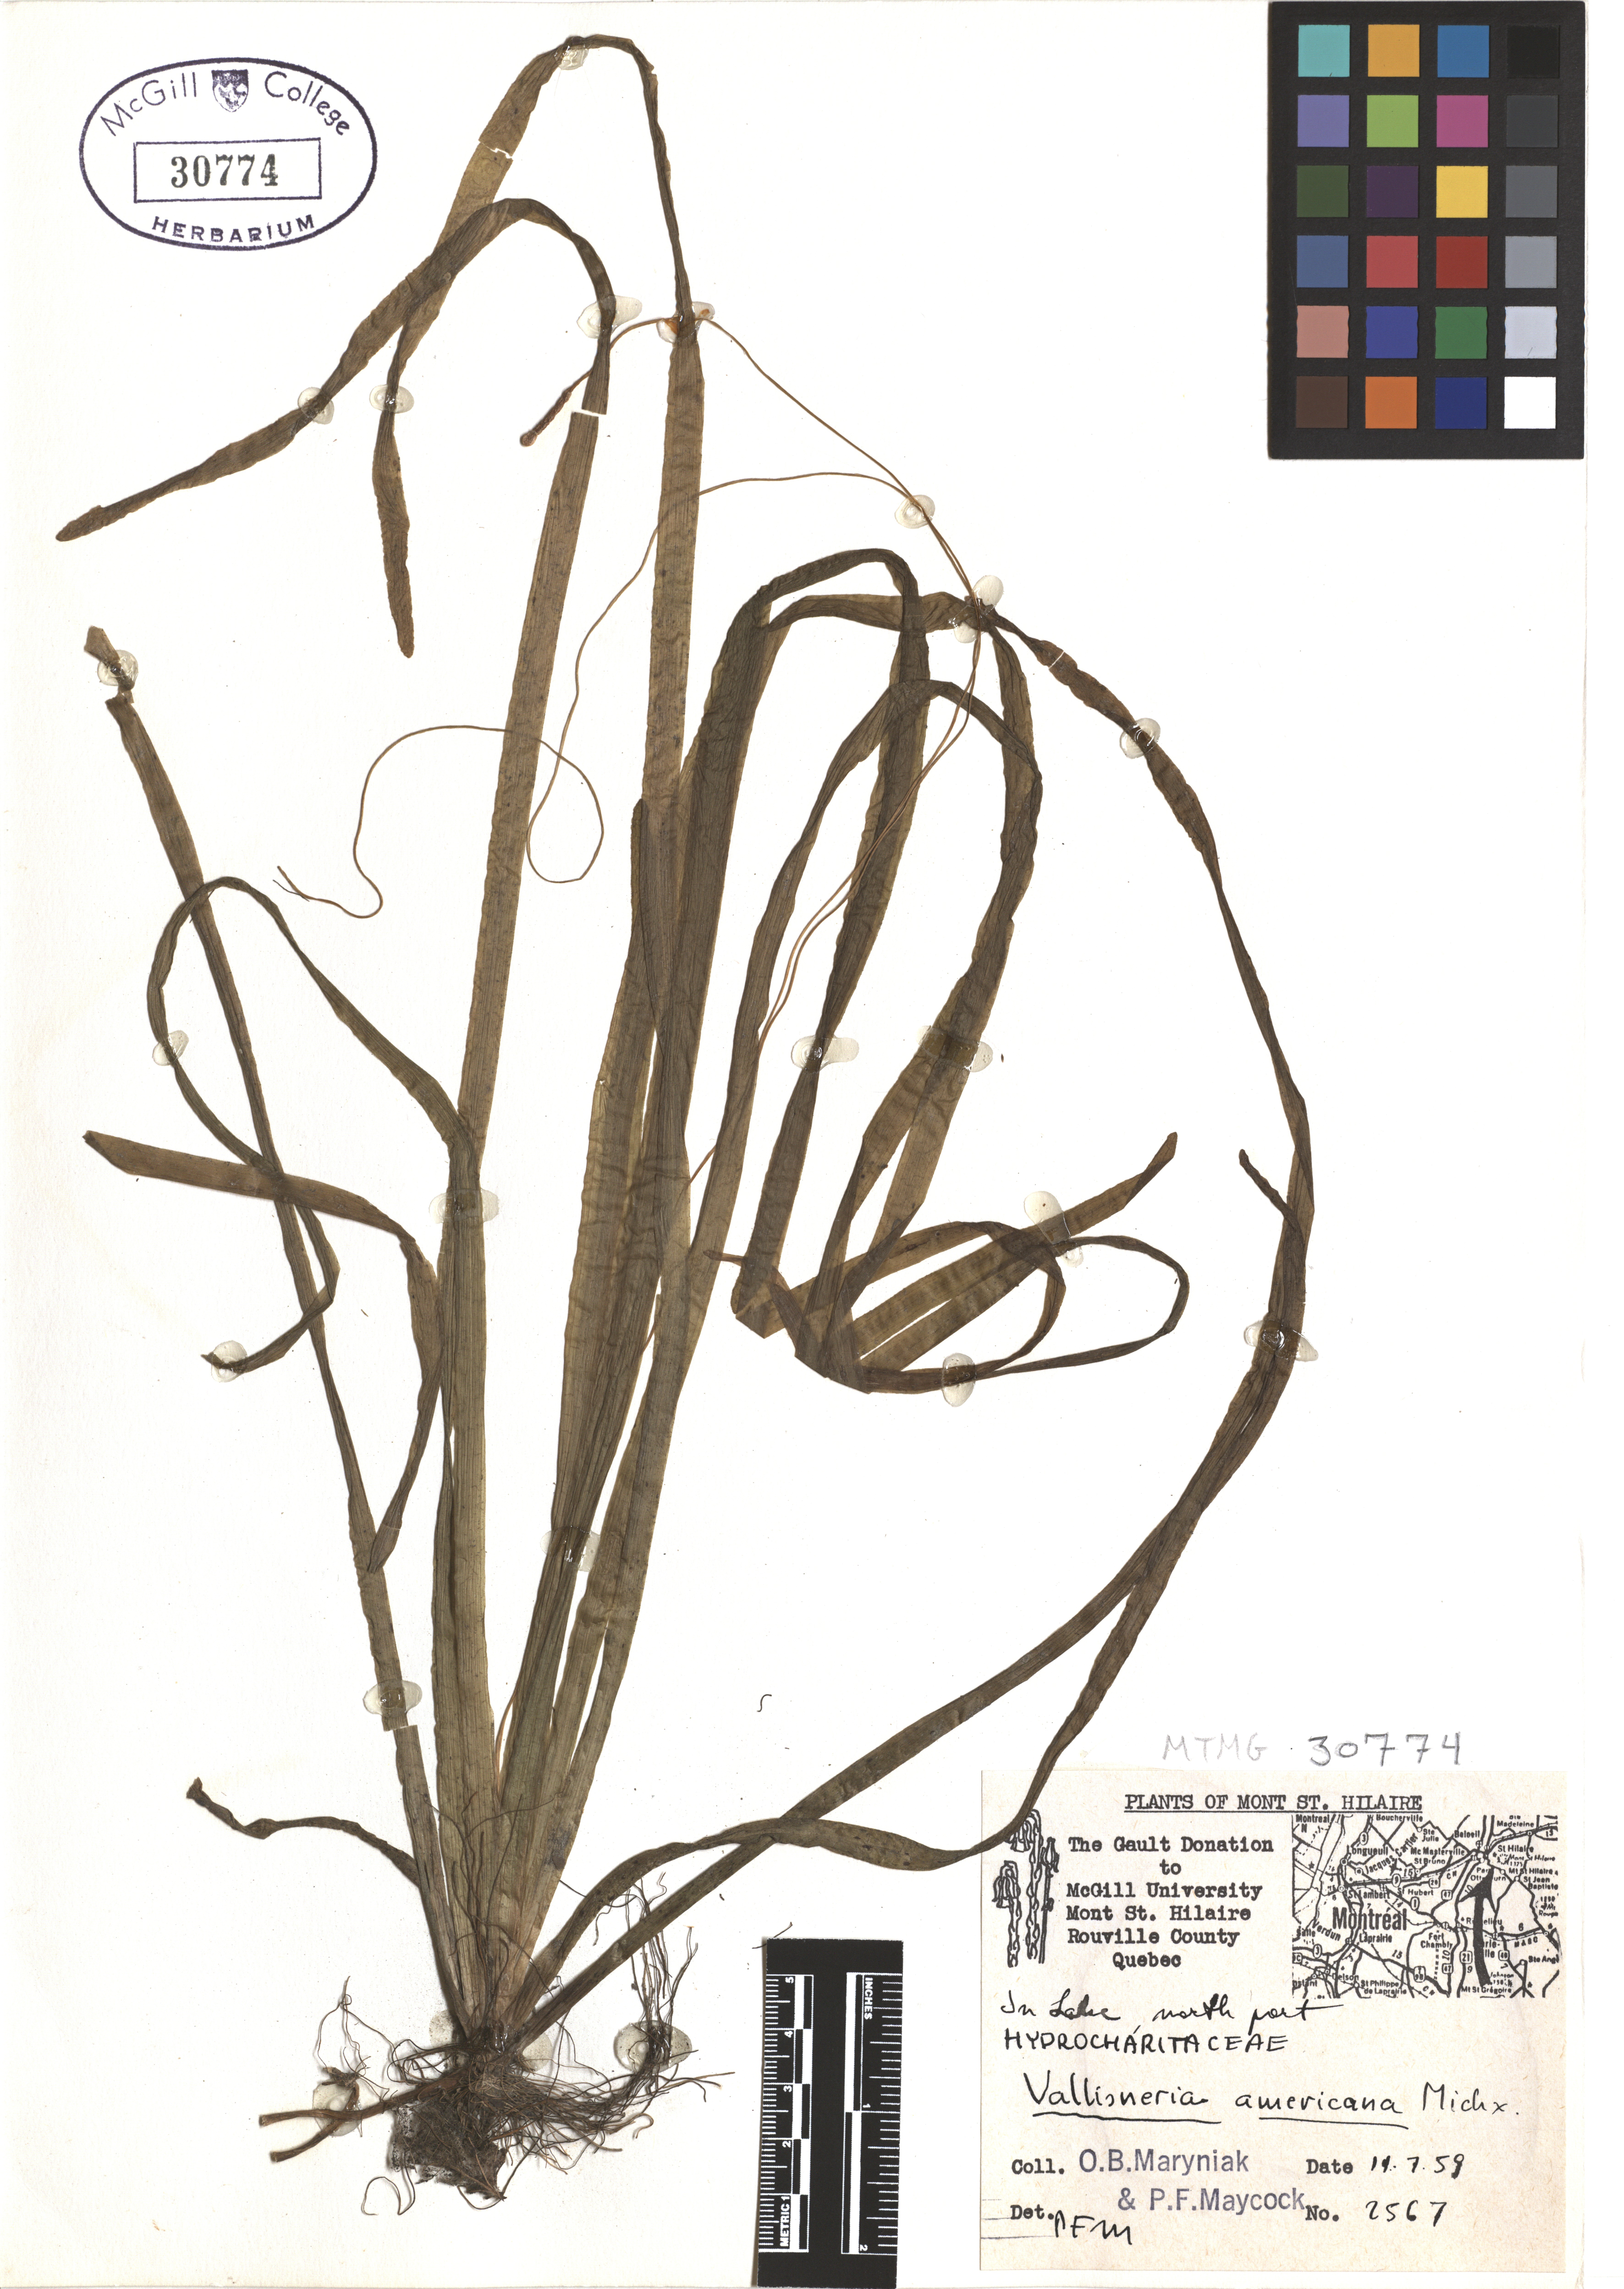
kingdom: Plantae
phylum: Tracheophyta
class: Liliopsida
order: Alismatales
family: Hydrocharitaceae
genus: Vallisneria
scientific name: Vallisneria americana
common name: American eelgrass
